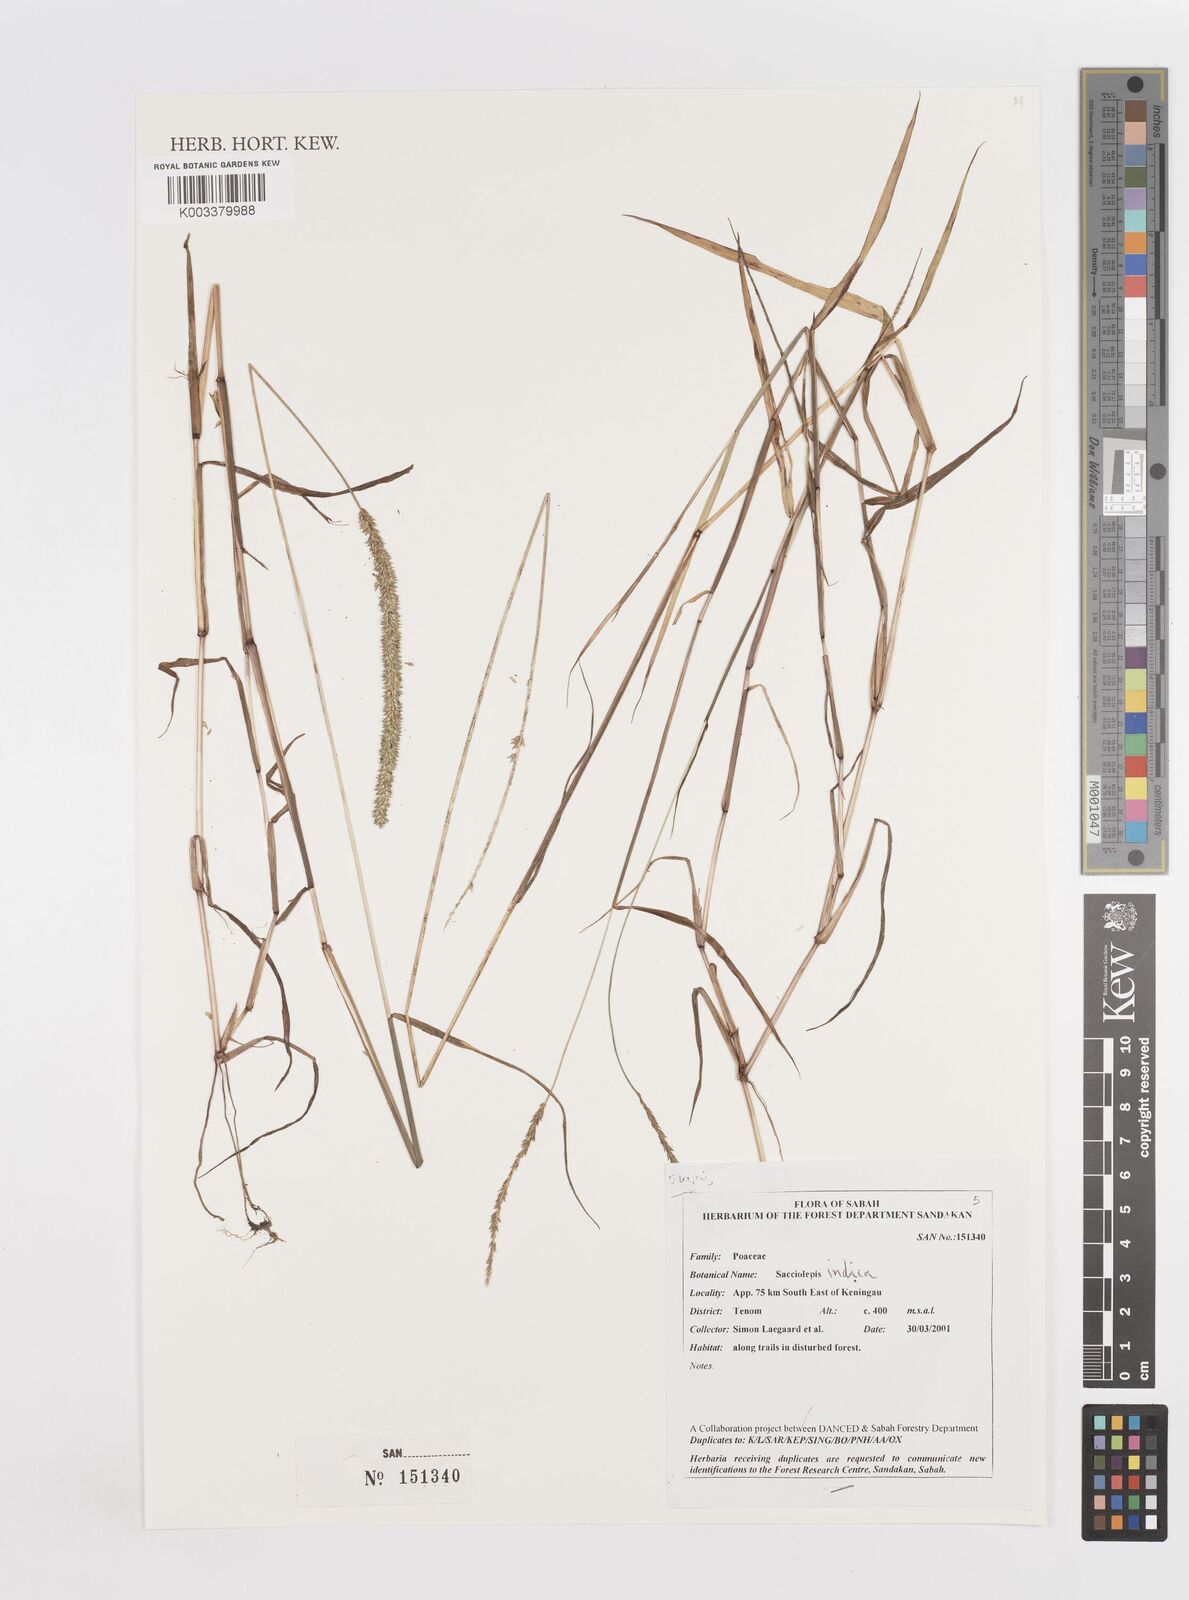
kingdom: Plantae
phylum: Tracheophyta
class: Liliopsida
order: Poales
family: Poaceae
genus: Sacciolepis
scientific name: Sacciolepis indica
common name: Glenwoodgrass
